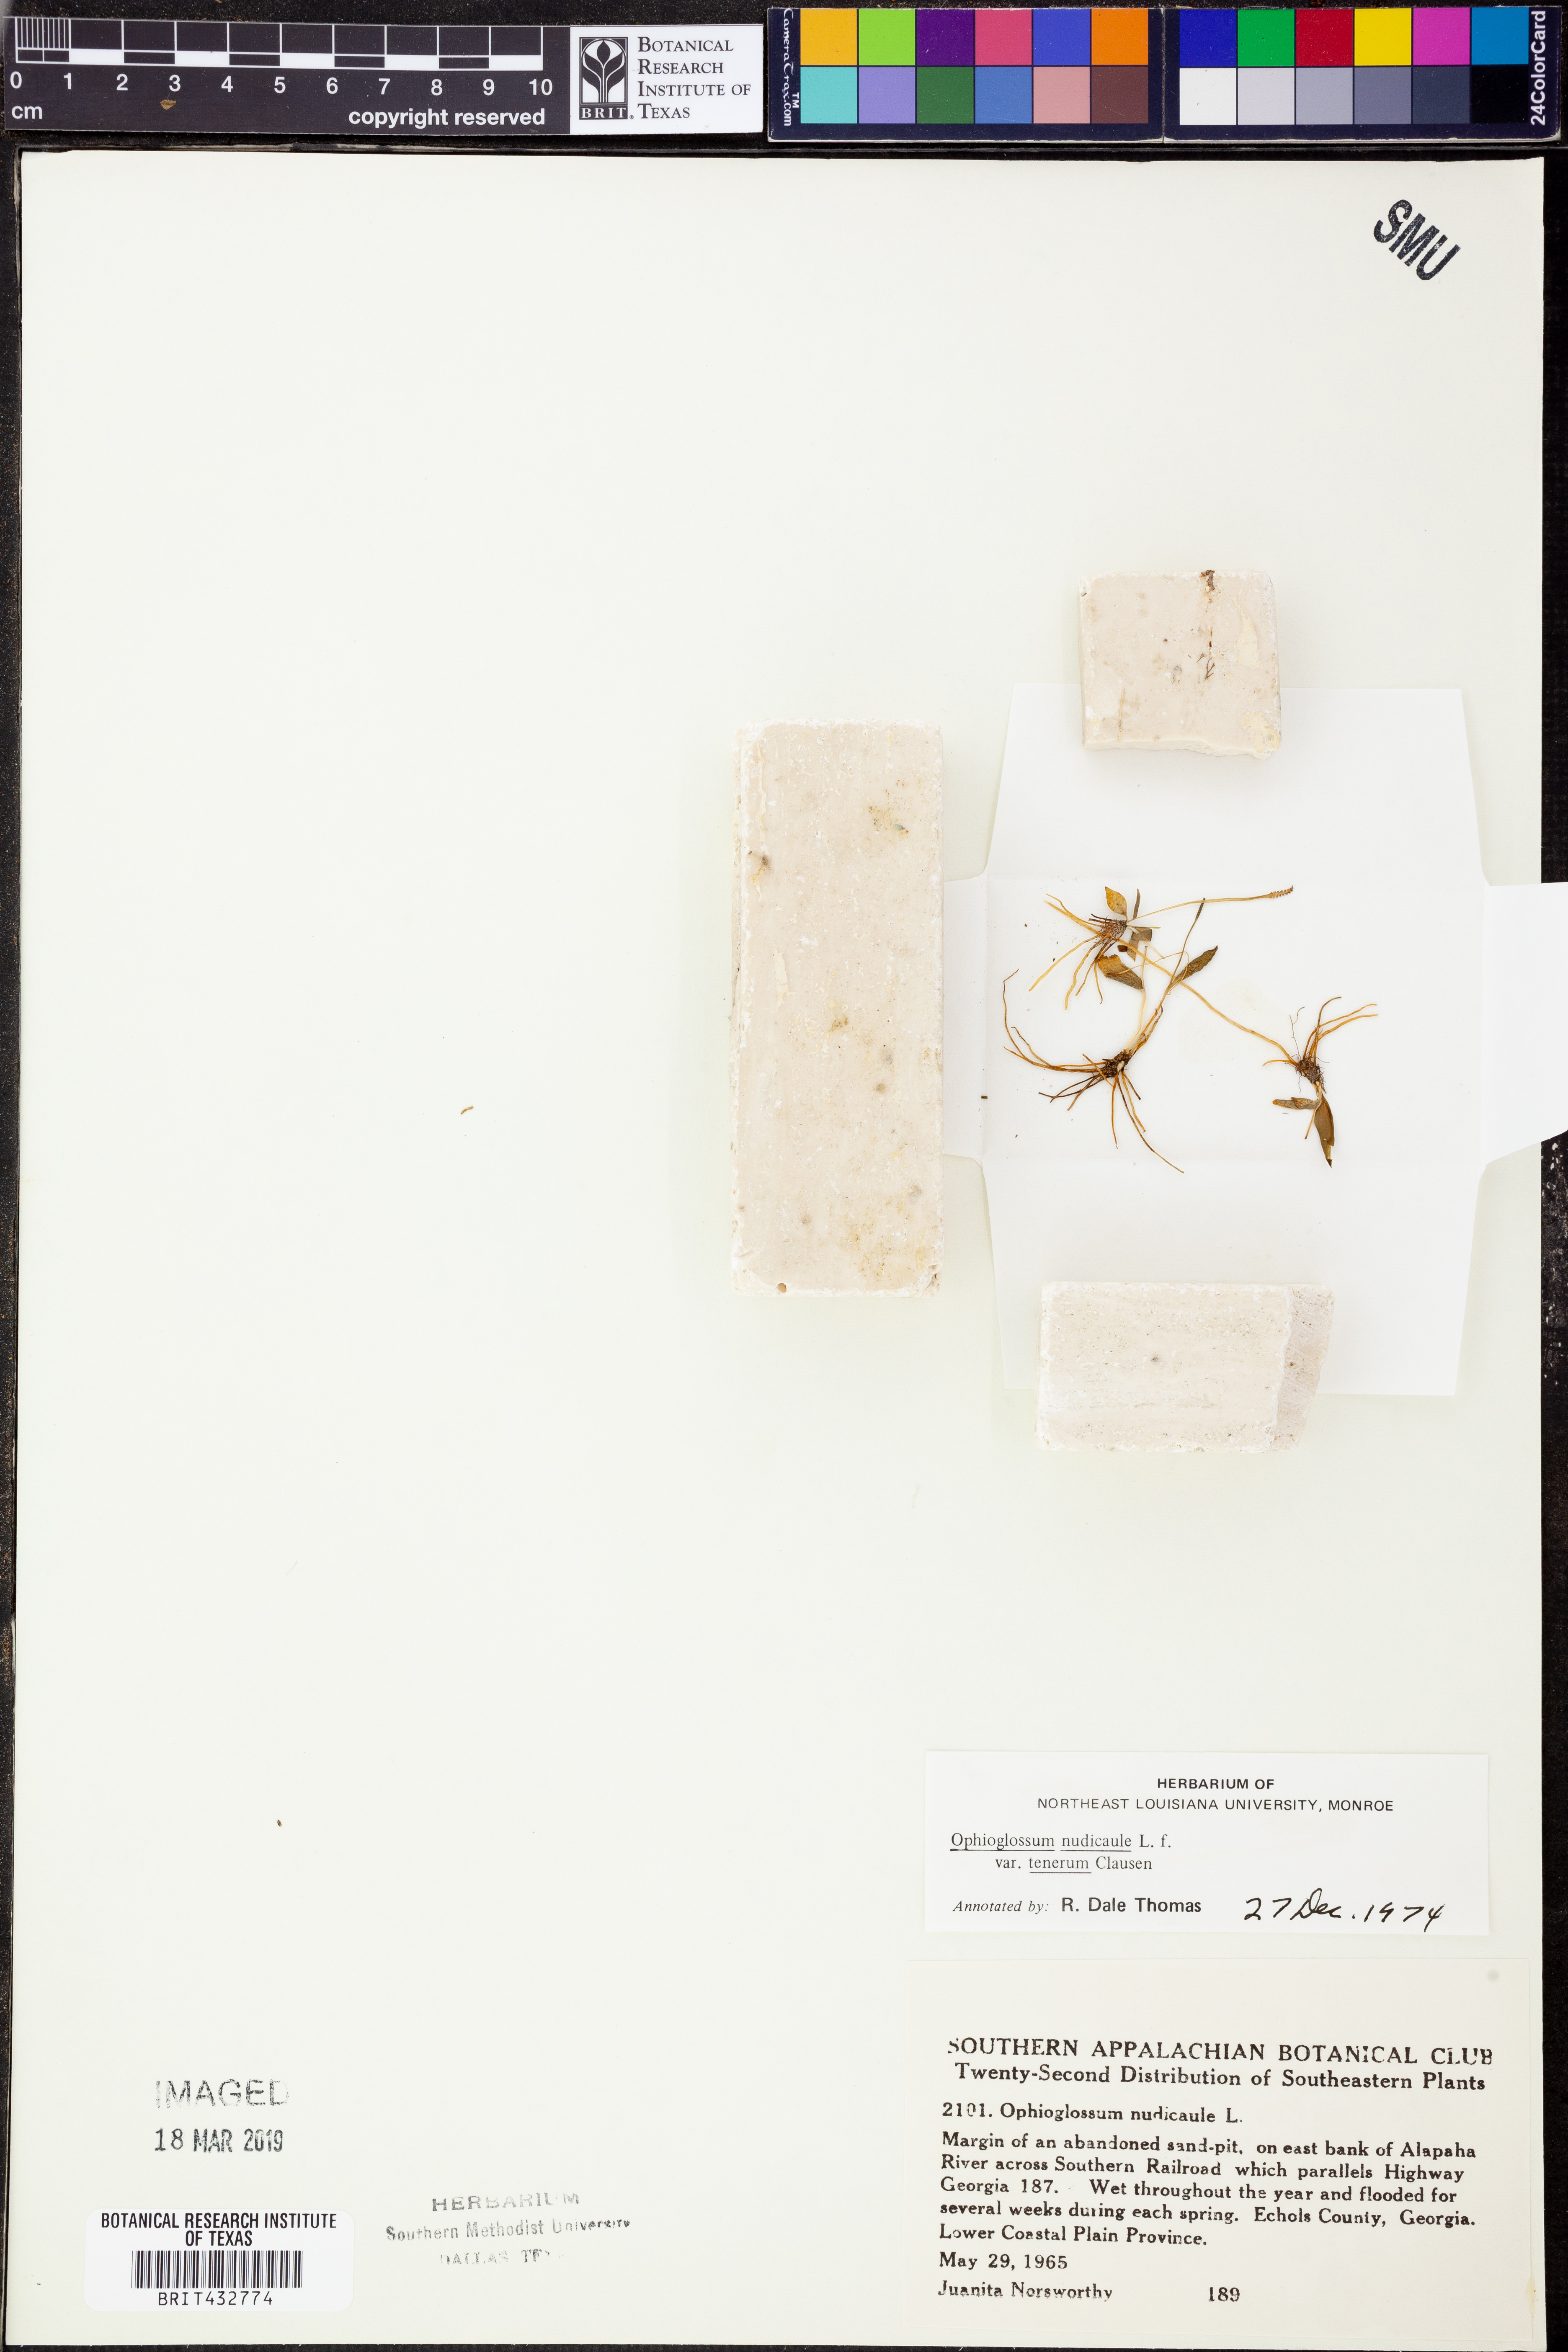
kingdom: Plantae
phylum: Tracheophyta
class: Polypodiopsida
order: Ophioglossales
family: Ophioglossaceae
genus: Ophioglossum
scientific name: Ophioglossum nudicaule
